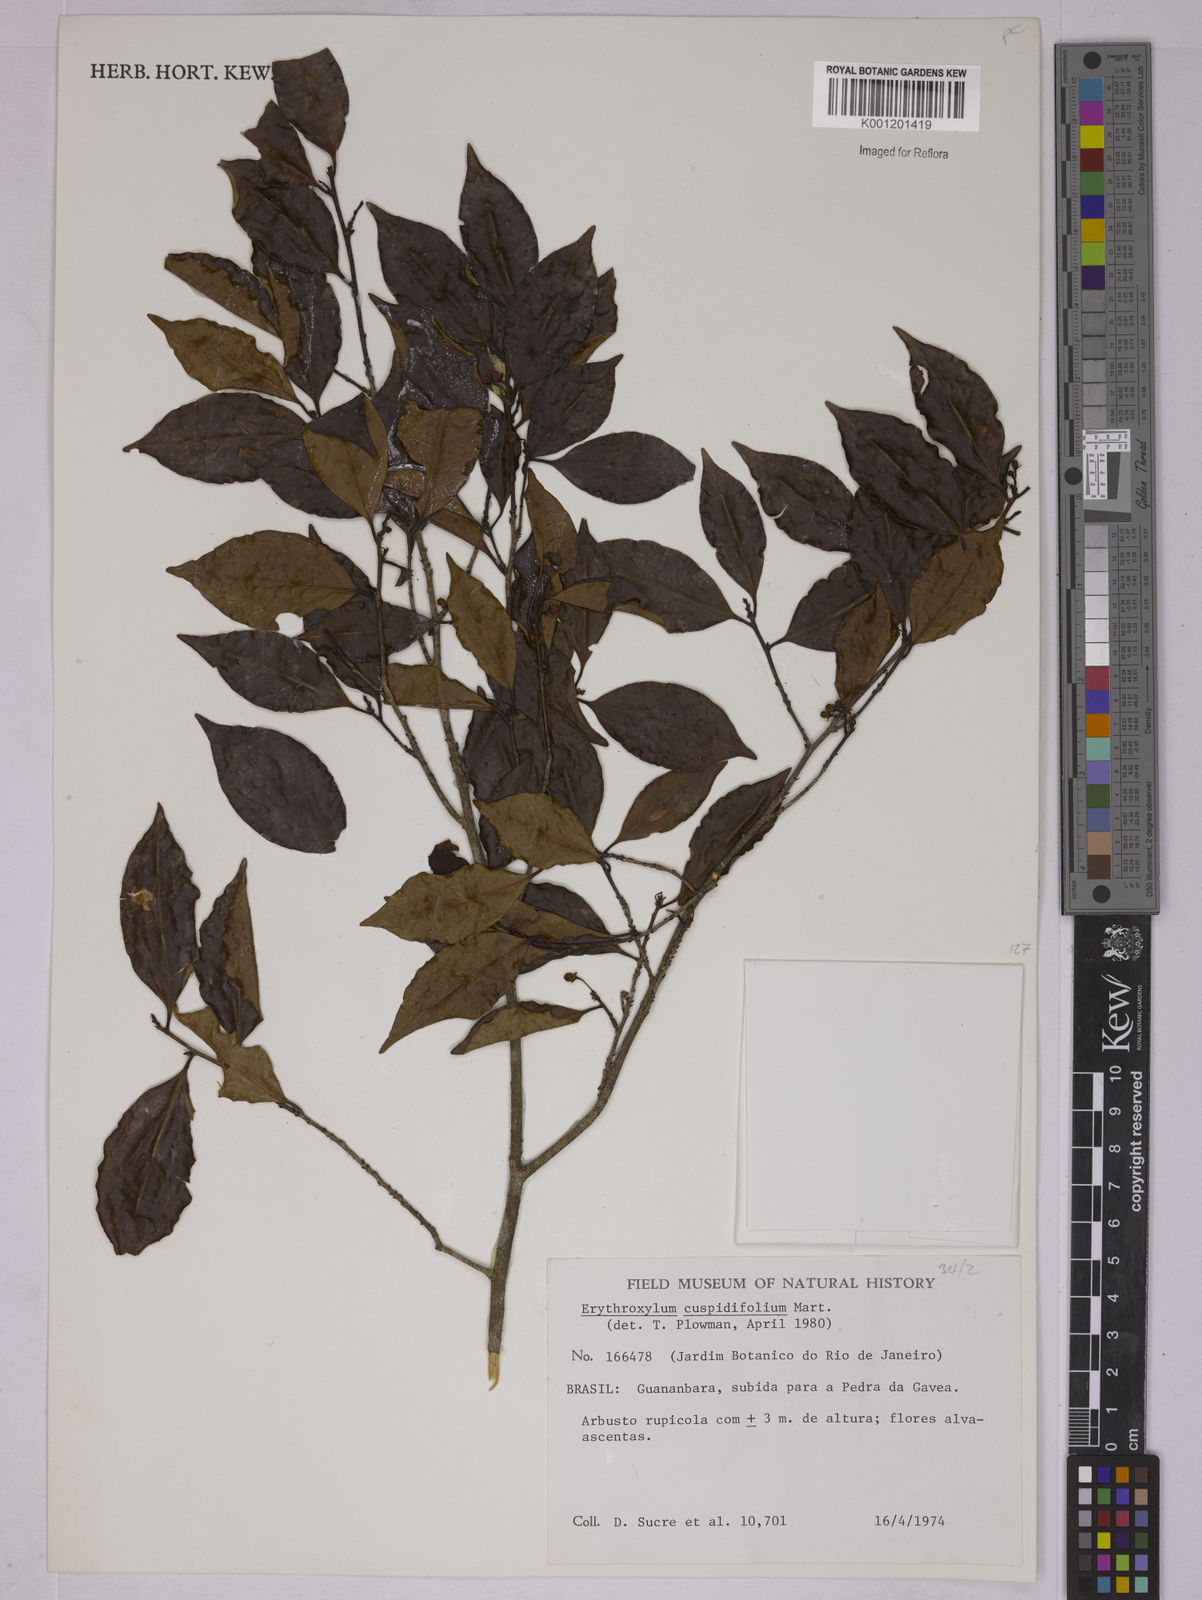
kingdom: Plantae
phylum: Tracheophyta
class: Magnoliopsida
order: Malpighiales
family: Erythroxylaceae
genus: Erythroxylum
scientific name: Erythroxylum cuspidifolium
